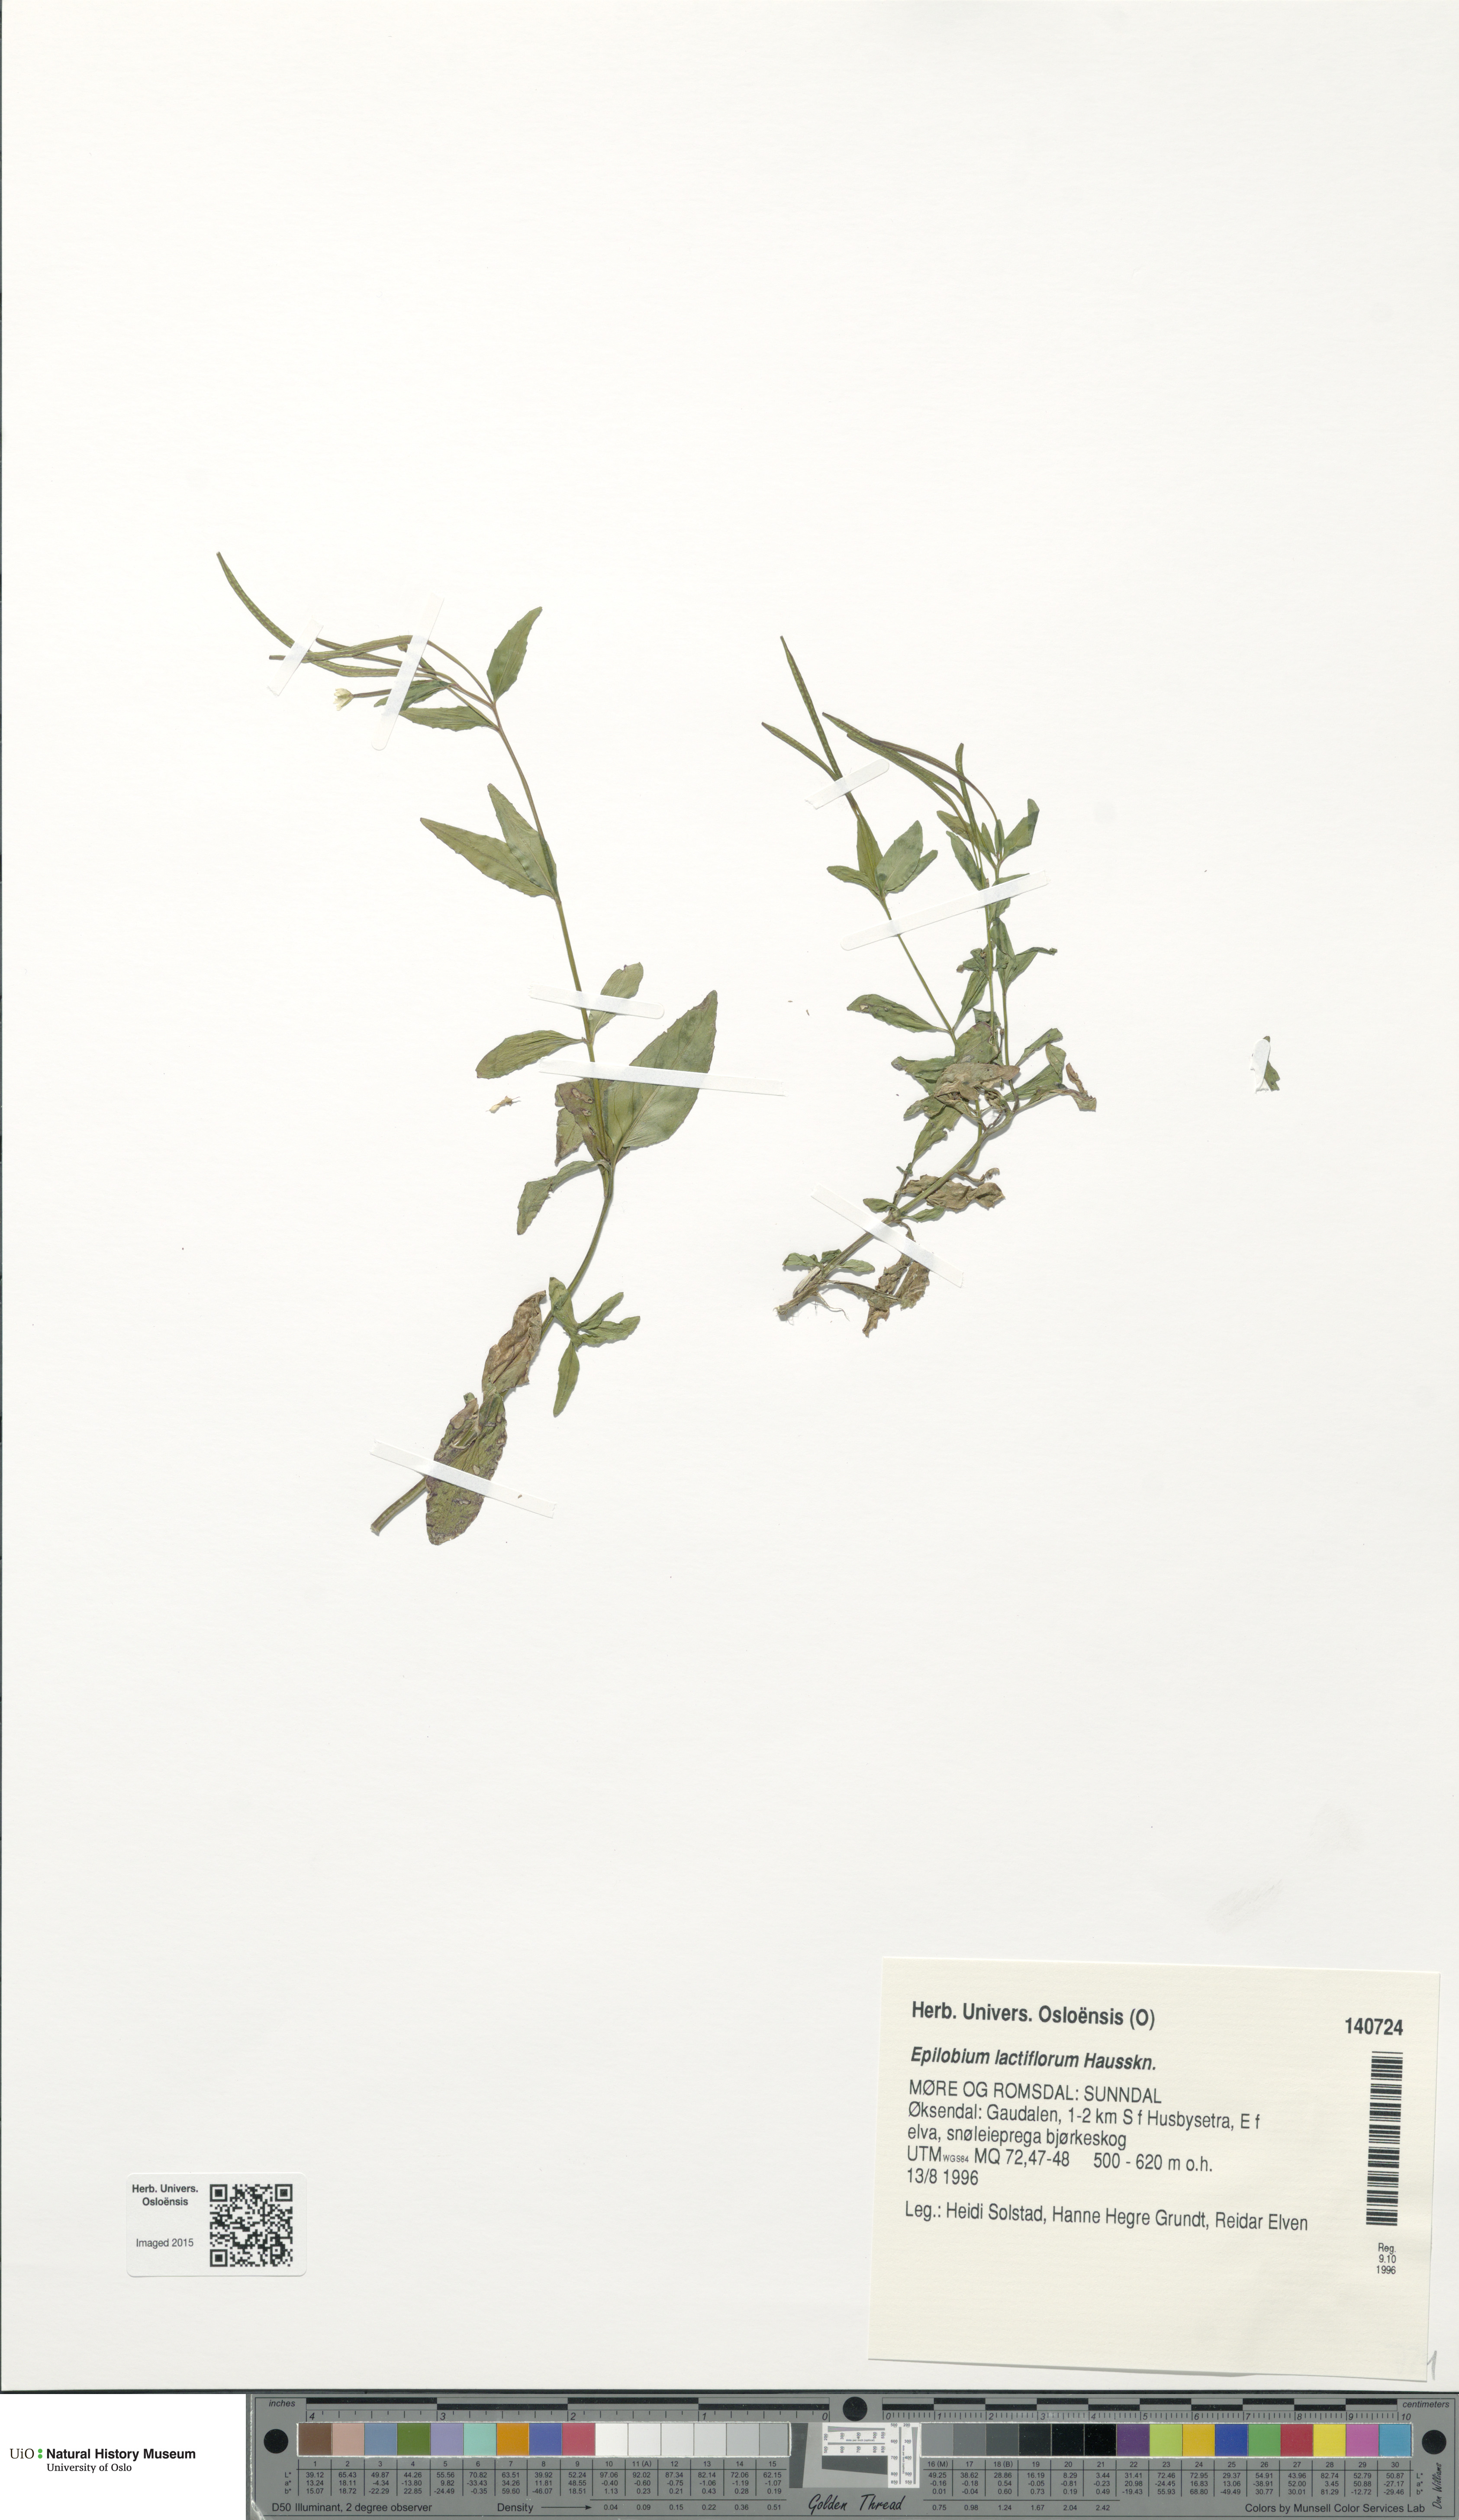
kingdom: Plantae
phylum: Tracheophyta
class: Magnoliopsida
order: Myrtales
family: Onagraceae
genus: Epilobium
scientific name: Epilobium lactiflorum
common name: Milkflower willowherb
